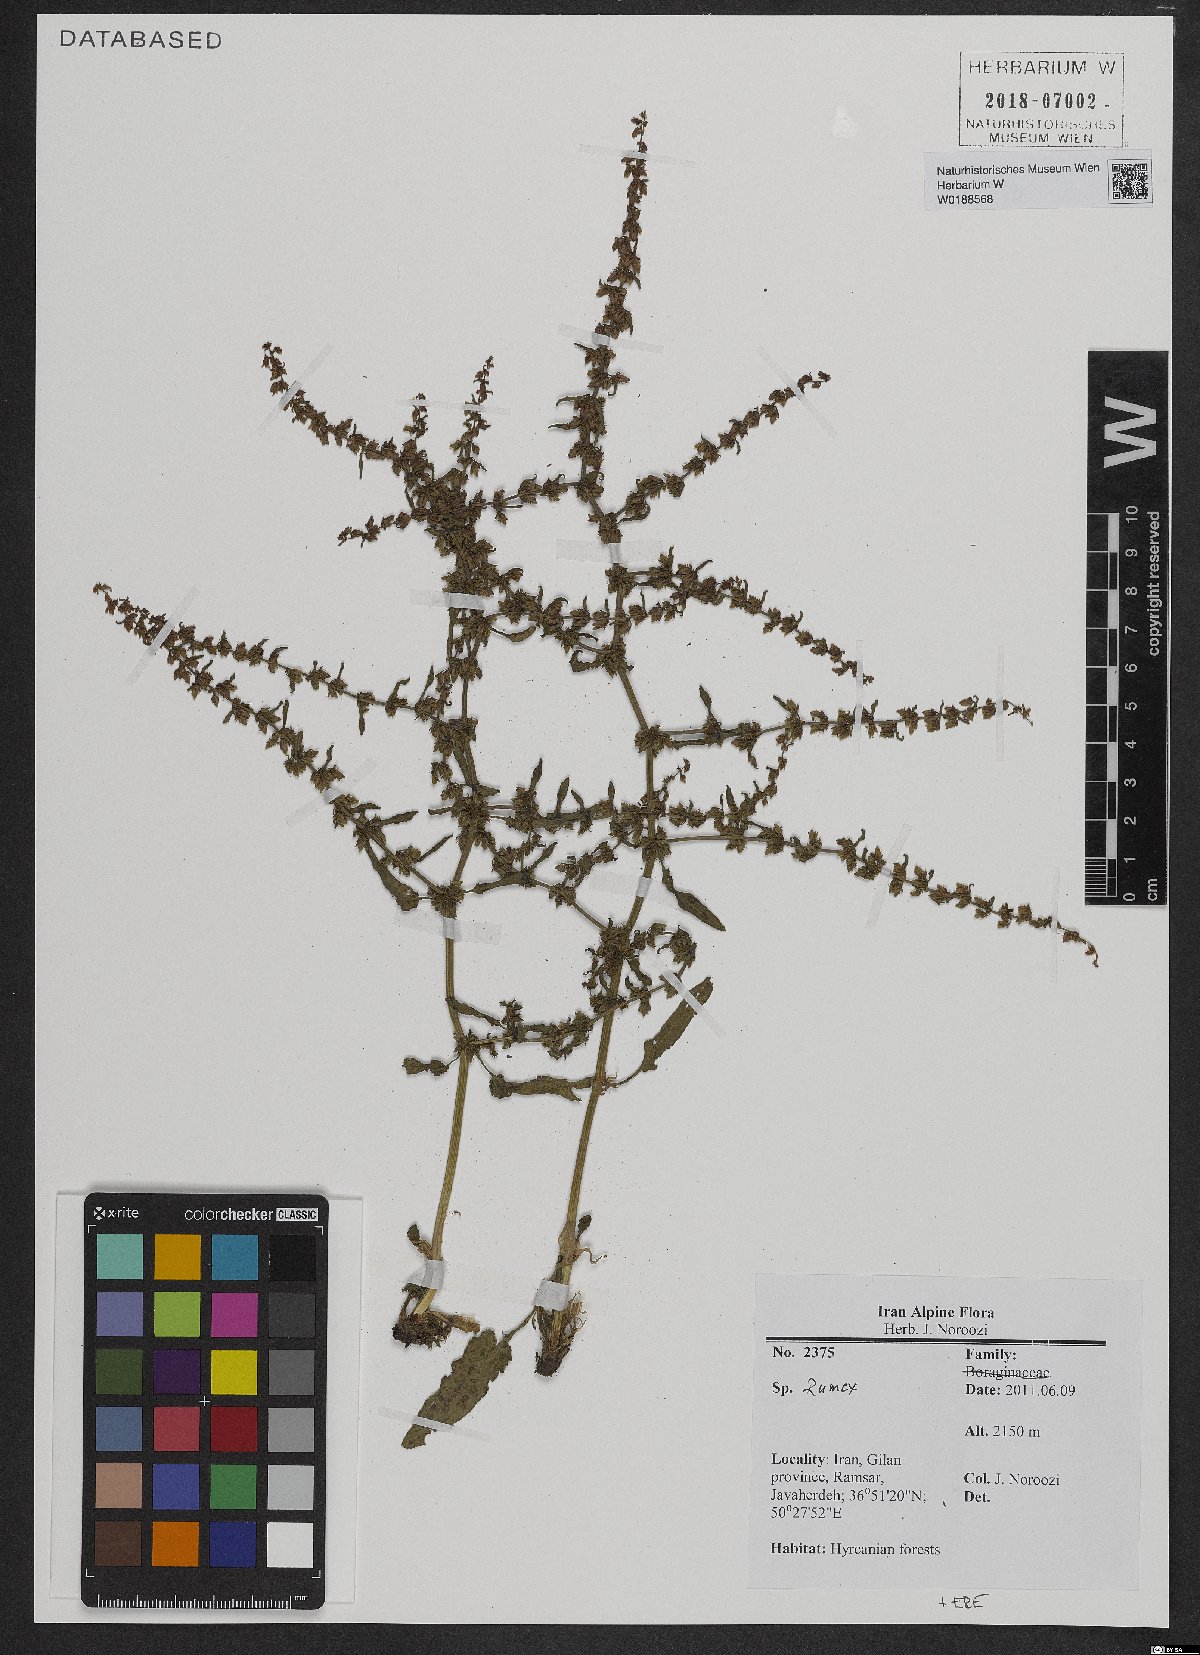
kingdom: Plantae
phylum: Tracheophyta
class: Magnoliopsida
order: Caryophyllales
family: Polygonaceae
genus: Rumex
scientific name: Rumex
